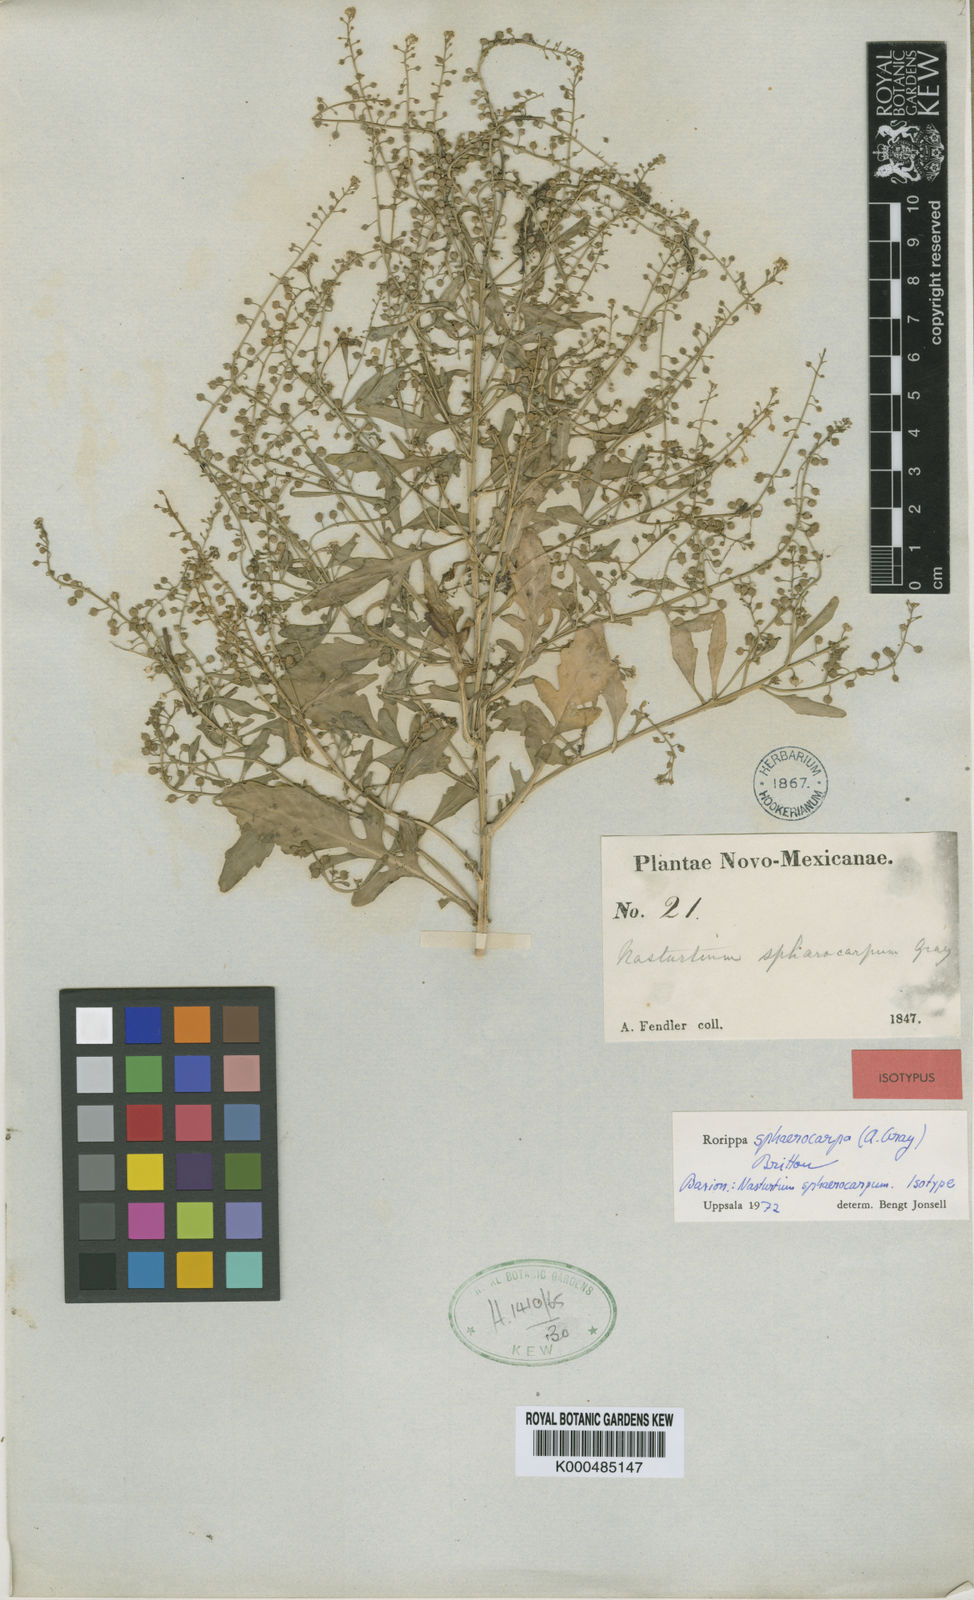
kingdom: Plantae
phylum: Tracheophyta
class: Magnoliopsida
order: Brassicales
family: Brassicaceae
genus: Rorippa
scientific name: Rorippa sphaerocarpa
